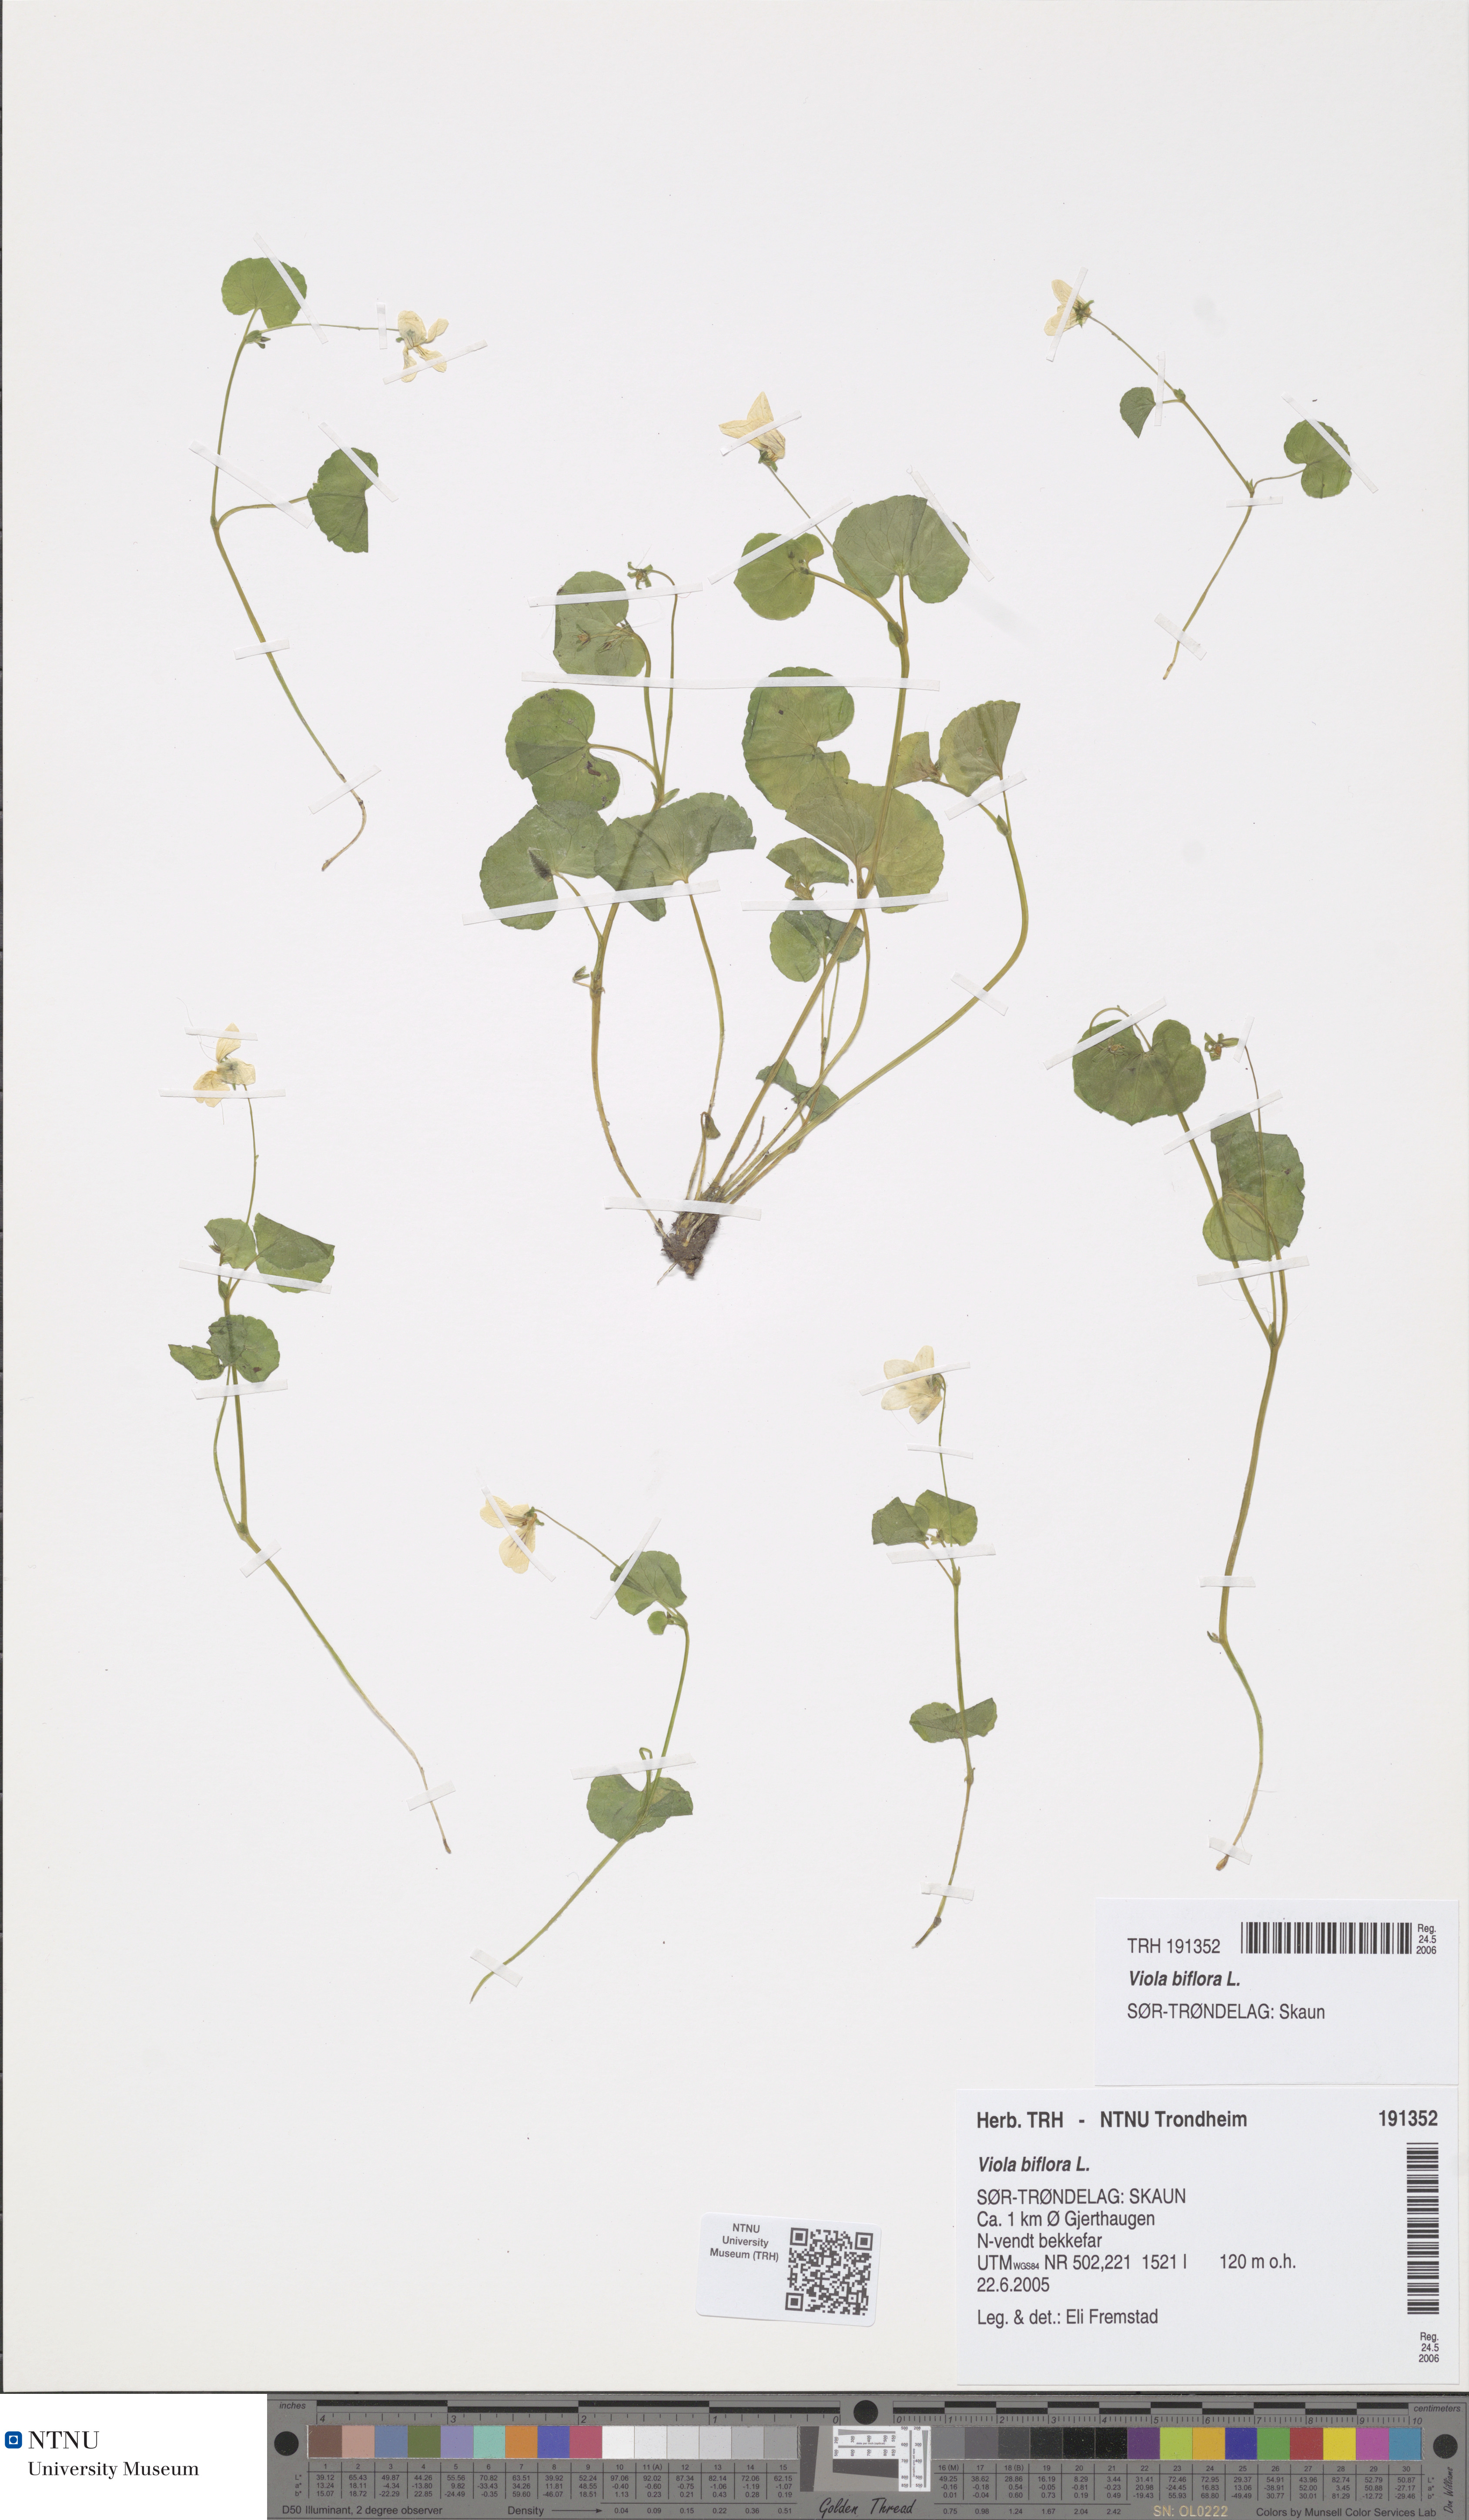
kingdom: Plantae
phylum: Tracheophyta
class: Magnoliopsida
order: Malpighiales
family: Violaceae
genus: Viola
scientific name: Viola biflora
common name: Alpine yellow violet
